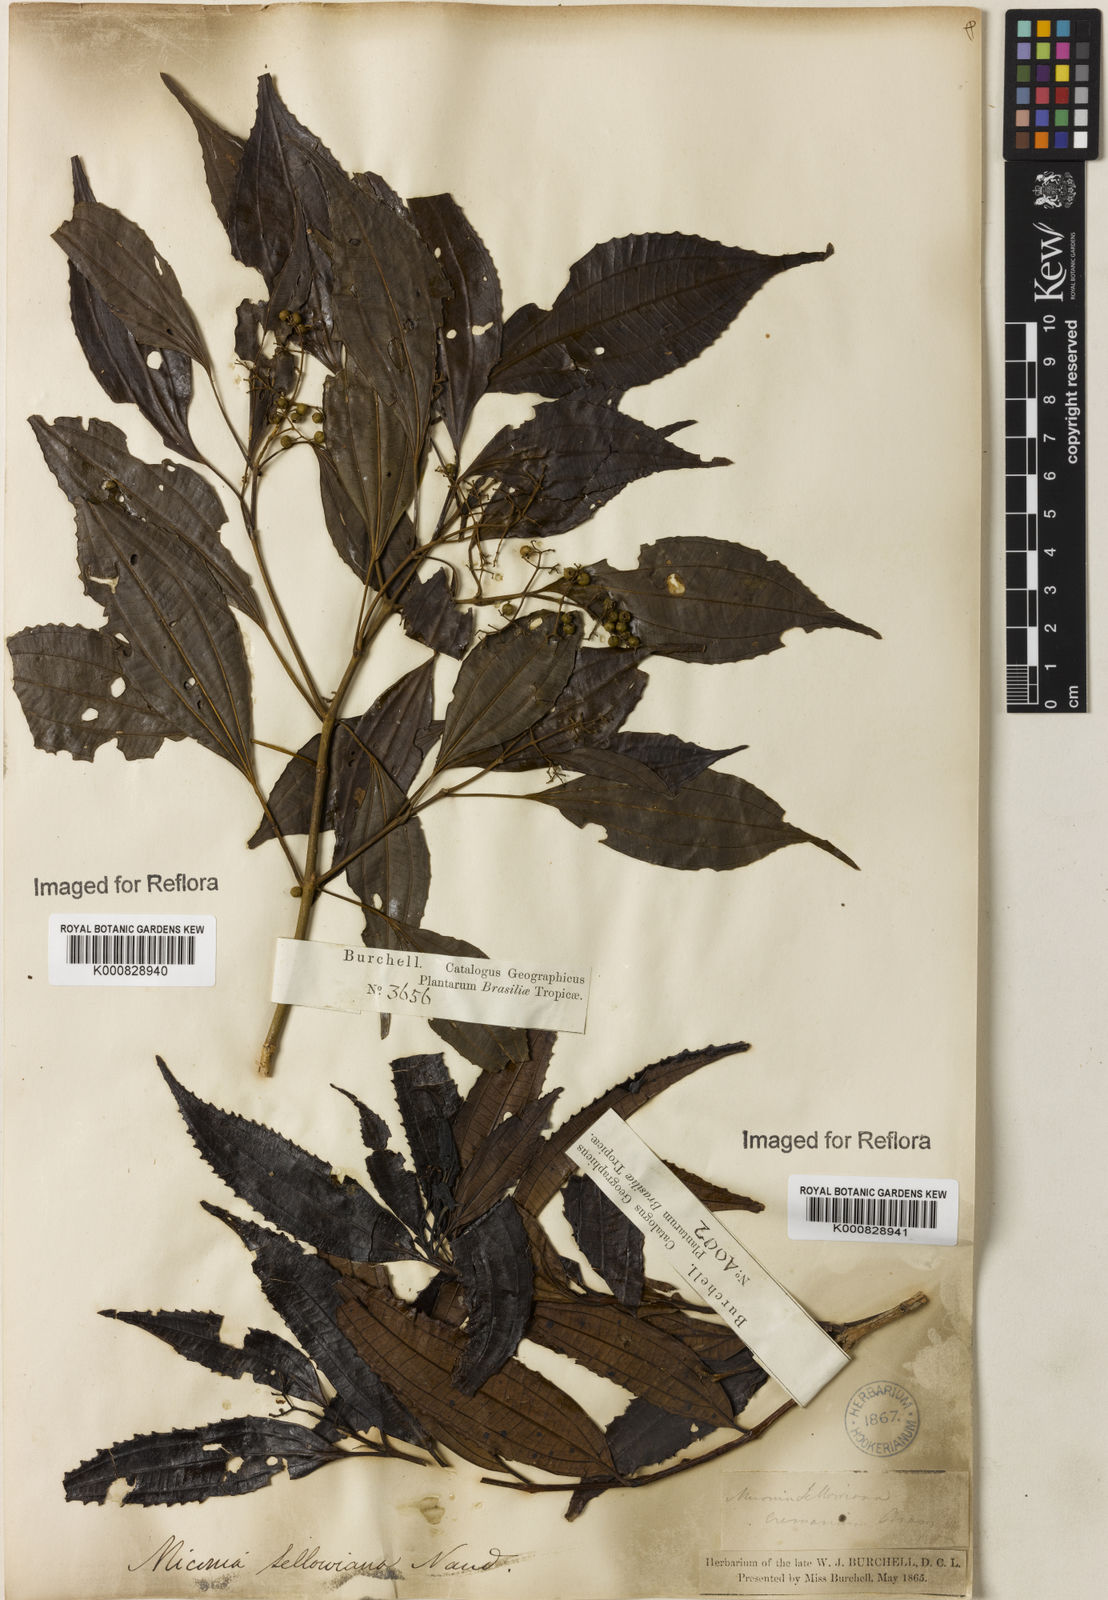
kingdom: Plantae
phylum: Tracheophyta
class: Magnoliopsida
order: Myrtales
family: Melastomataceae
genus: Miconia
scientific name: Miconia sellowiana
